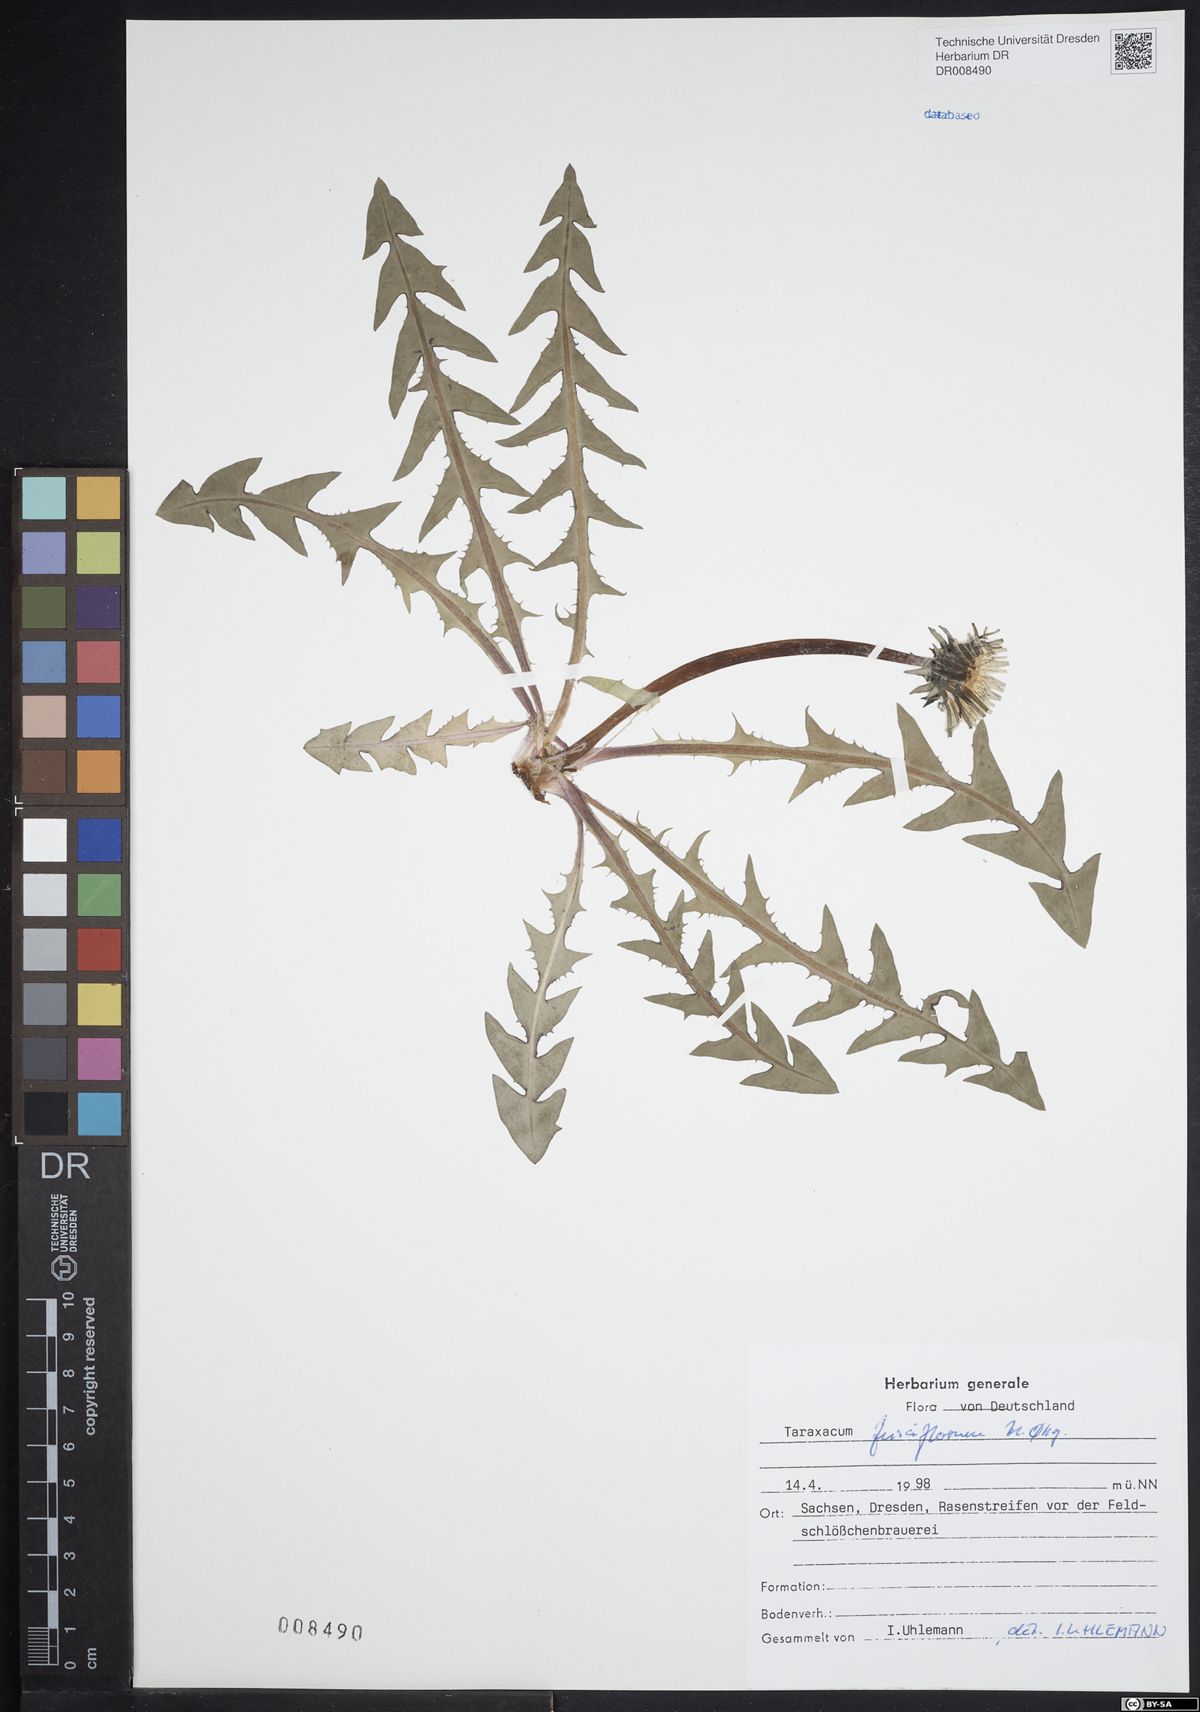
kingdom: Plantae
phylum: Tracheophyta
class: Magnoliopsida
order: Asterales
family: Asteraceae
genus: Taraxacum
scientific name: Taraxacum fusciflorum
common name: Brown-striped dandelion
